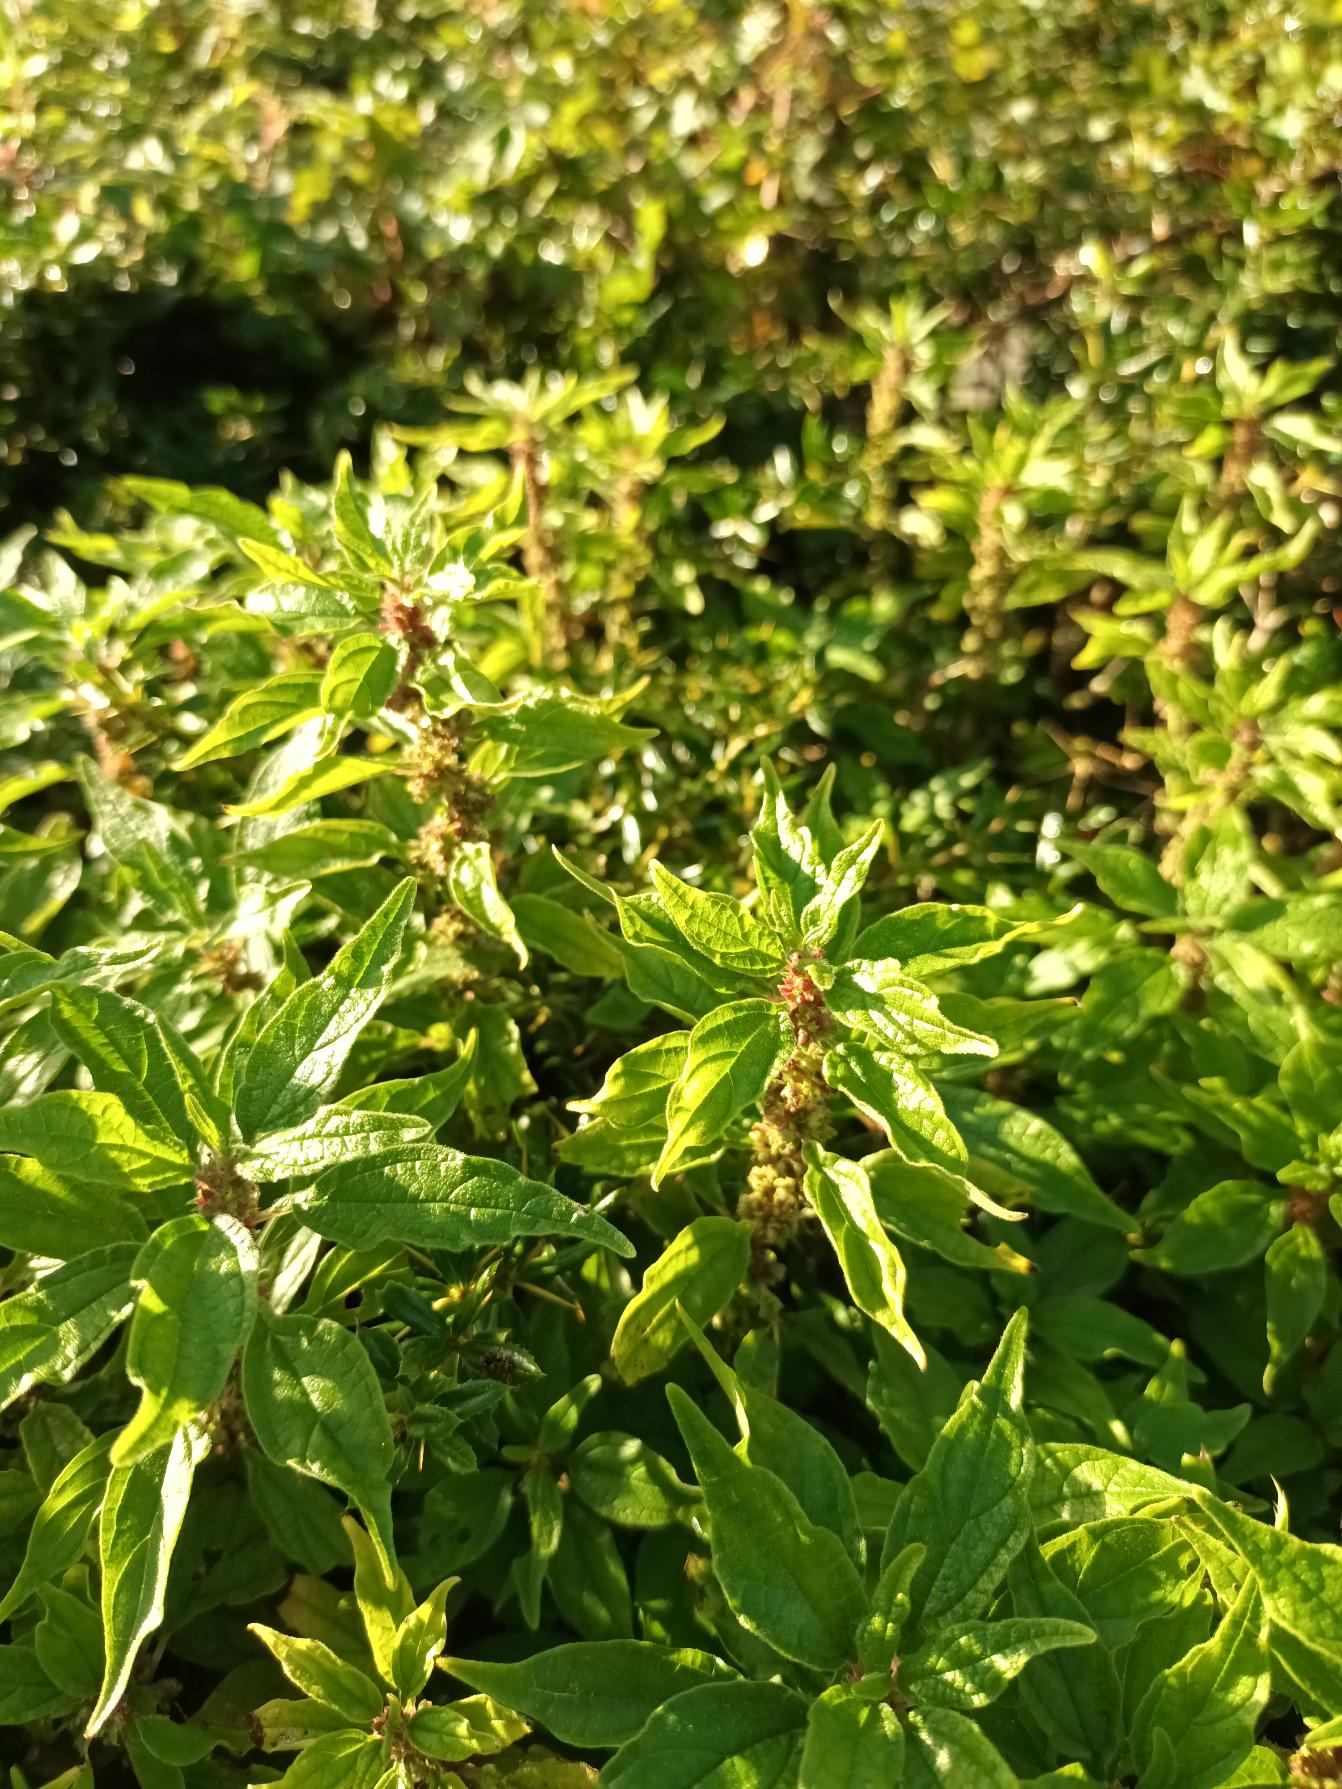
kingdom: Plantae
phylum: Tracheophyta
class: Magnoliopsida
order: Rosales
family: Urticaceae
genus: Parietaria
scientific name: Parietaria officinalis
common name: Almindelig springknap
